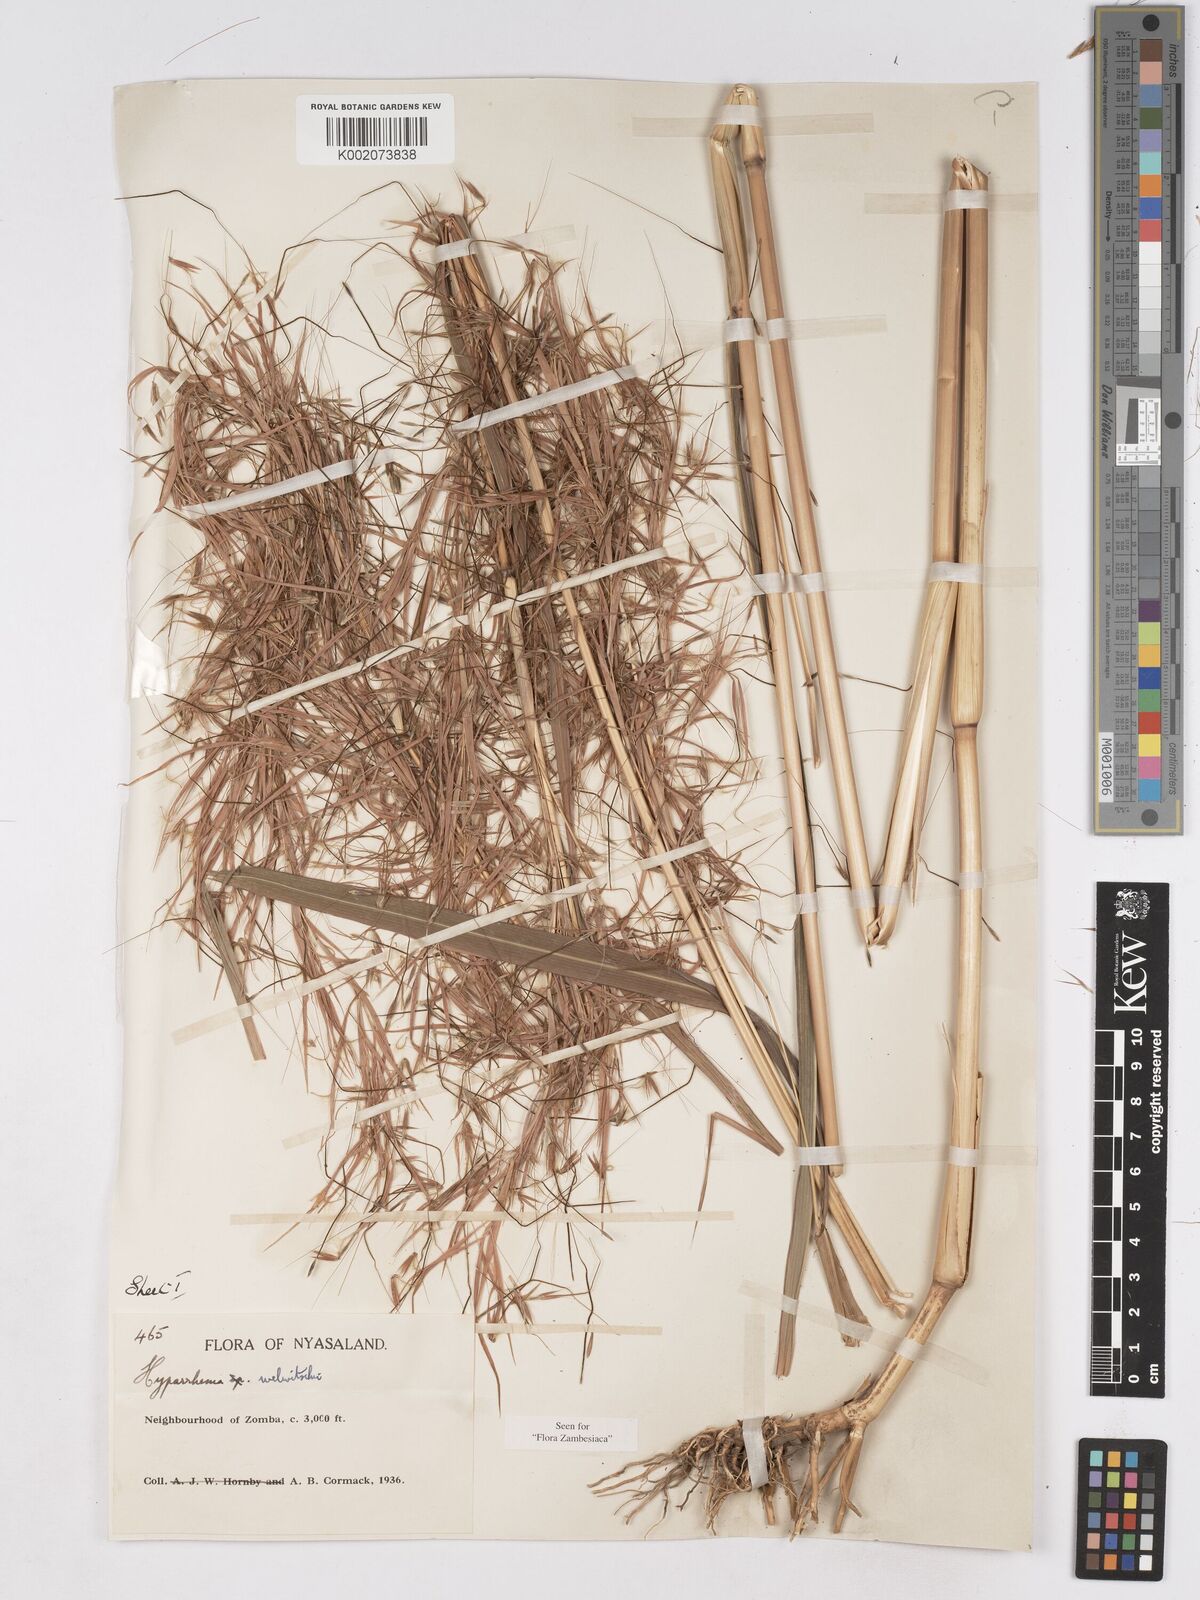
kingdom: Plantae
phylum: Tracheophyta
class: Liliopsida
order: Poales
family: Poaceae
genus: Hyparrhenia
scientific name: Hyparrhenia welwitschii
